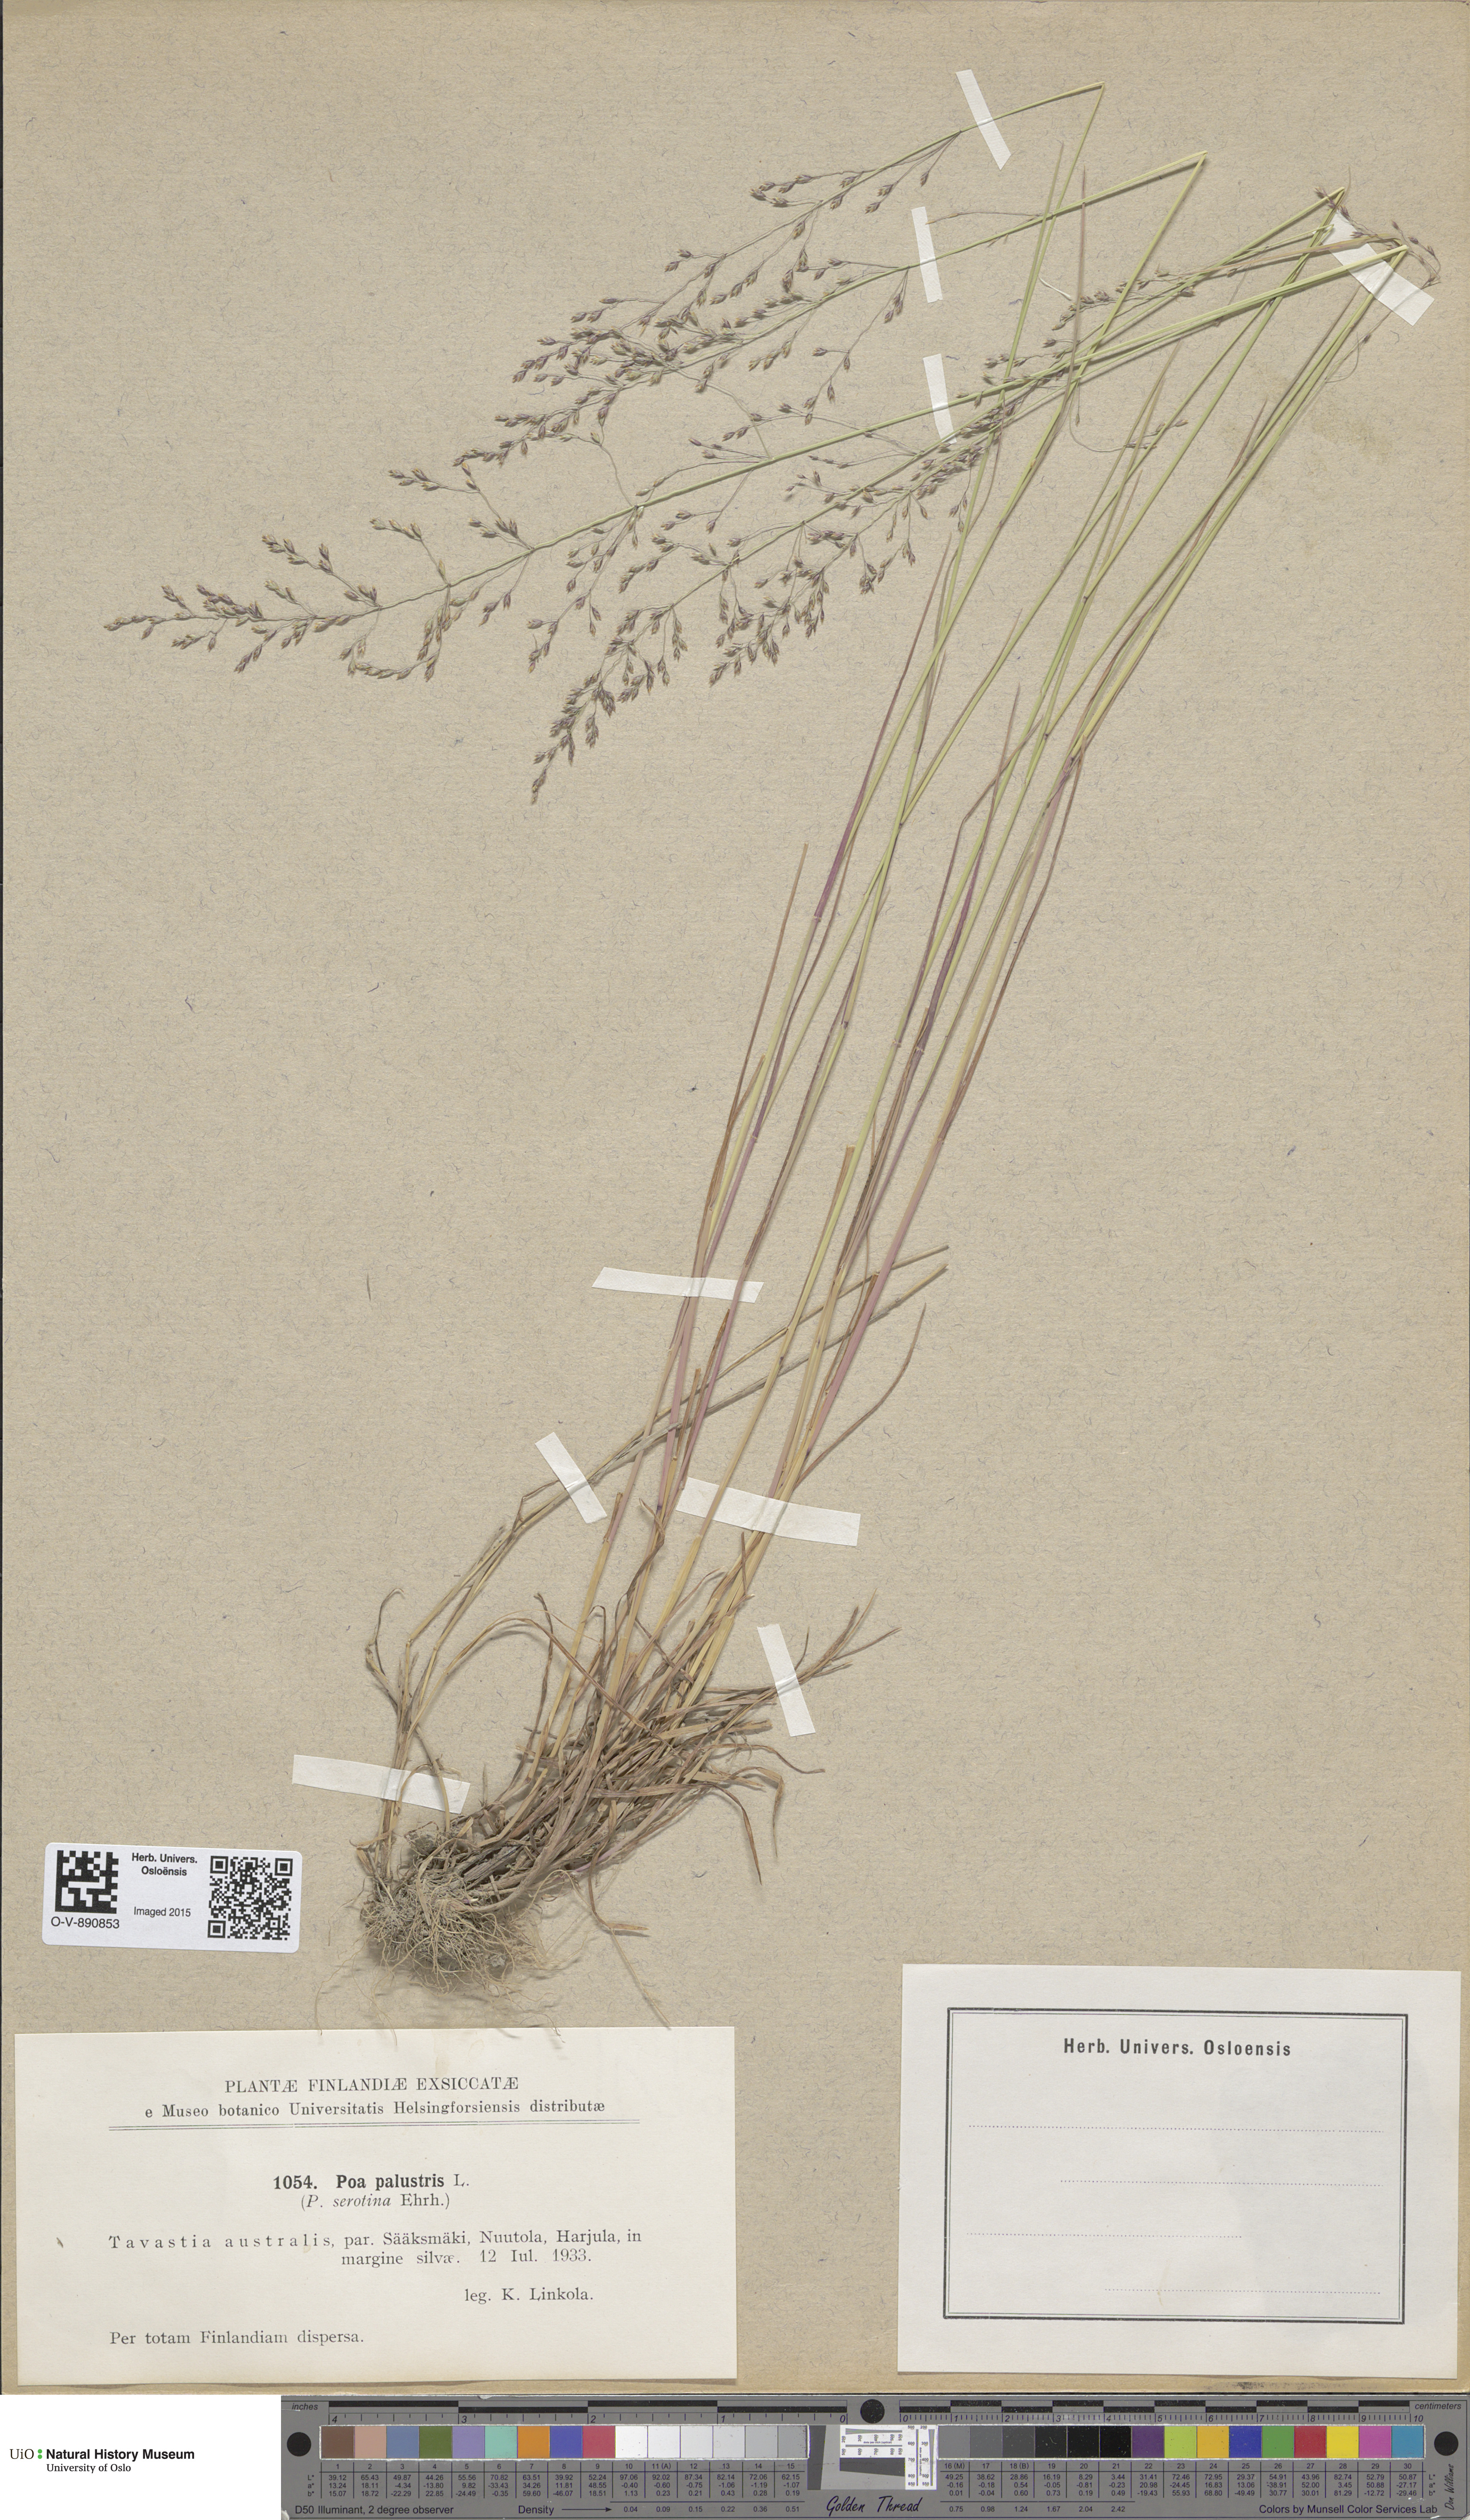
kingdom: Plantae
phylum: Tracheophyta
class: Liliopsida
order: Poales
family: Poaceae
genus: Poa
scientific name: Poa palustris
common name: Swamp meadow-grass
